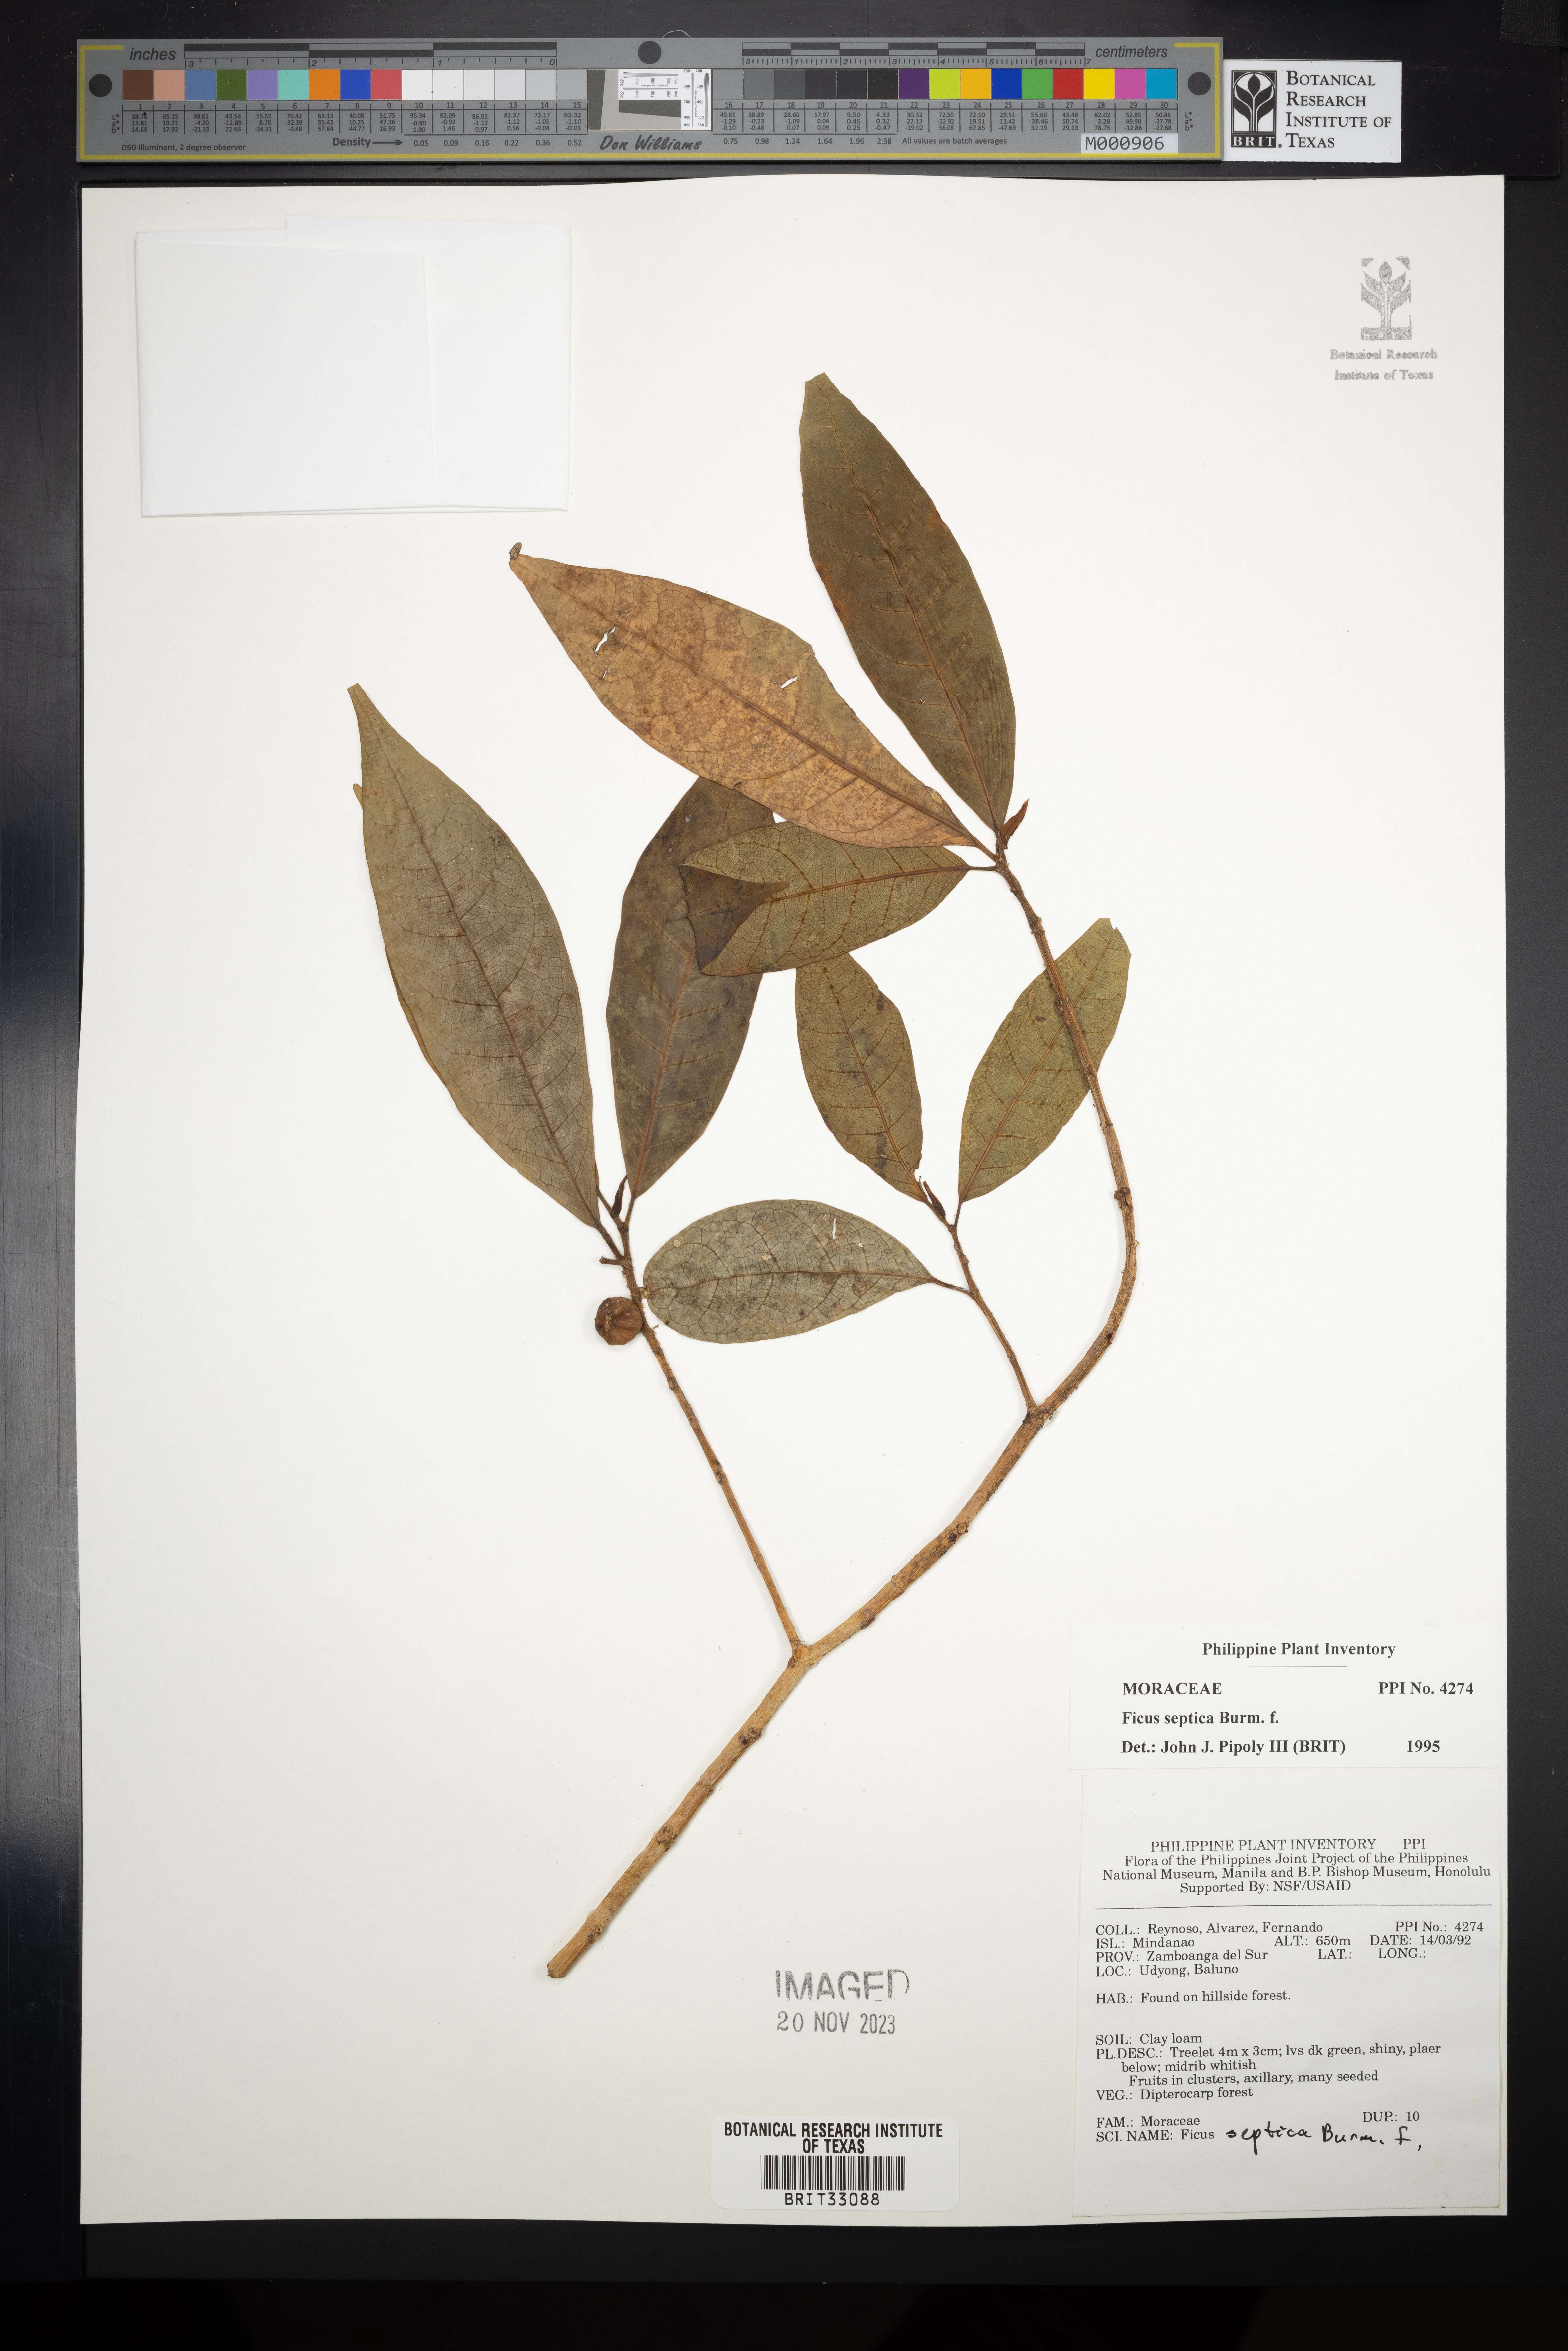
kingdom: Plantae
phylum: Tracheophyta
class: Magnoliopsida
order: Rosales
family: Moraceae
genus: Ficus
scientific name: Ficus septica
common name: Septic fig
